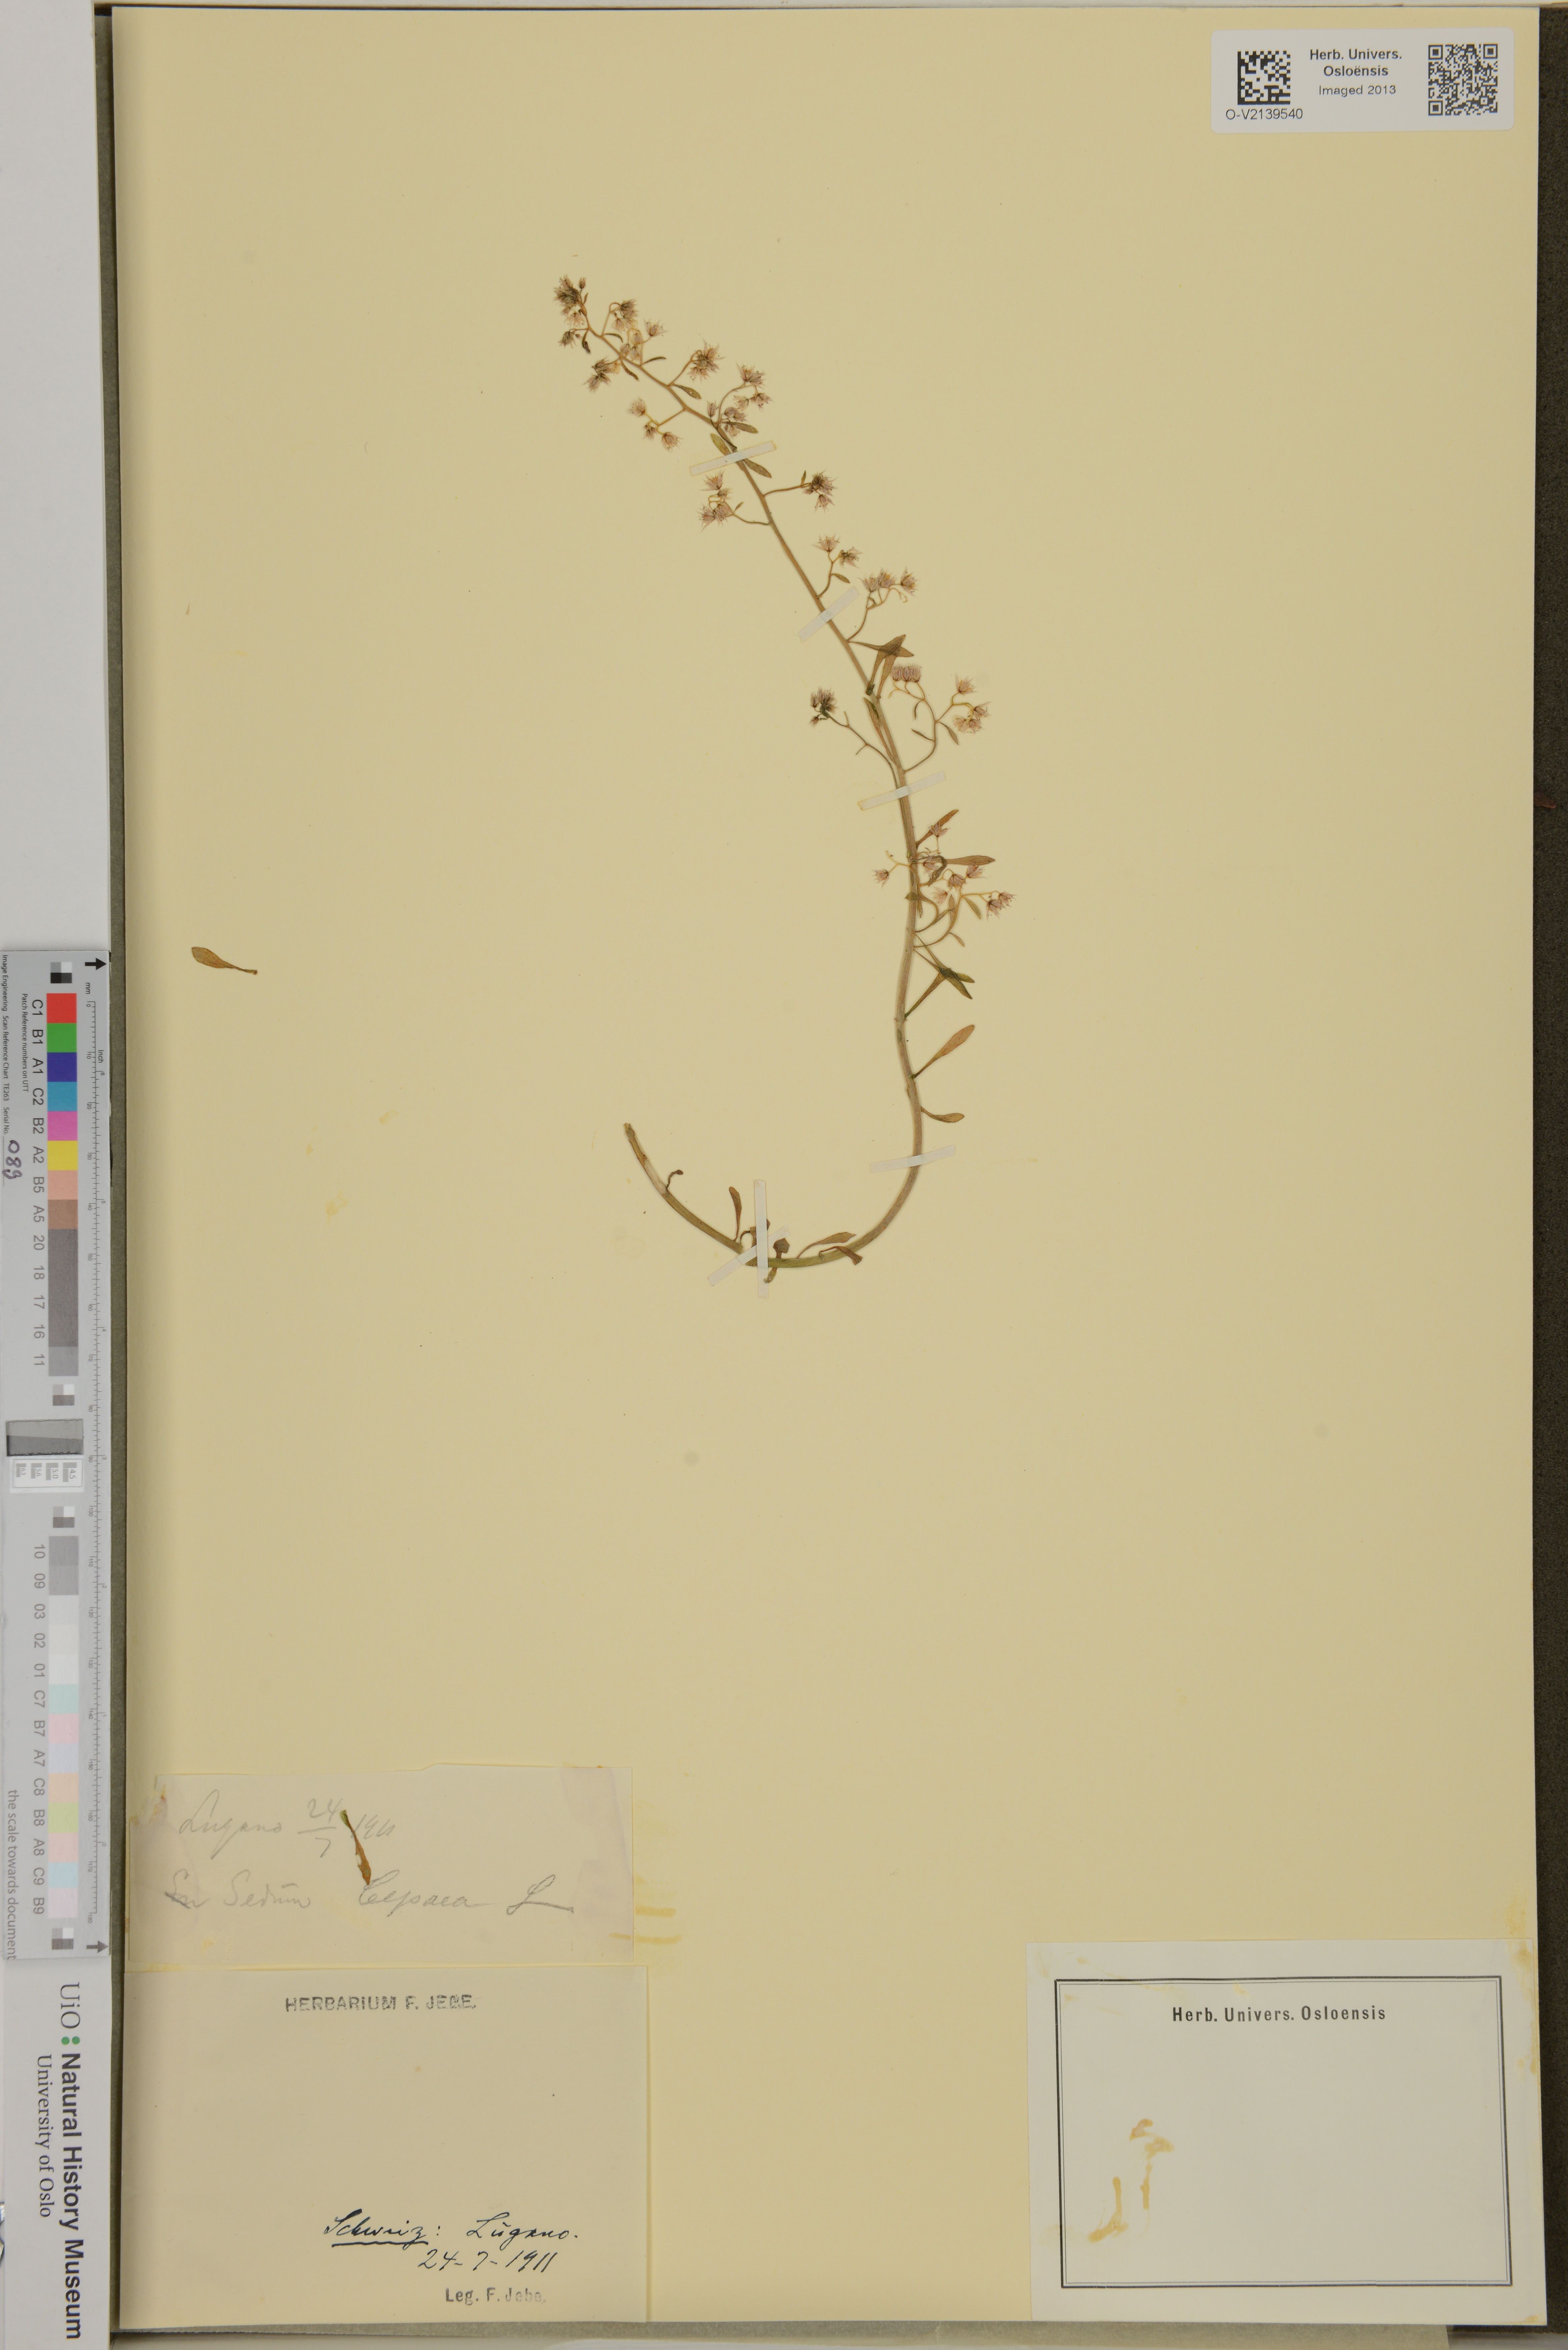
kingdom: Plantae
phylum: Tracheophyta
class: Magnoliopsida
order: Saxifragales
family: Crassulaceae
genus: Sedum
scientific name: Sedum cepaea
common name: Pink stonecrop
